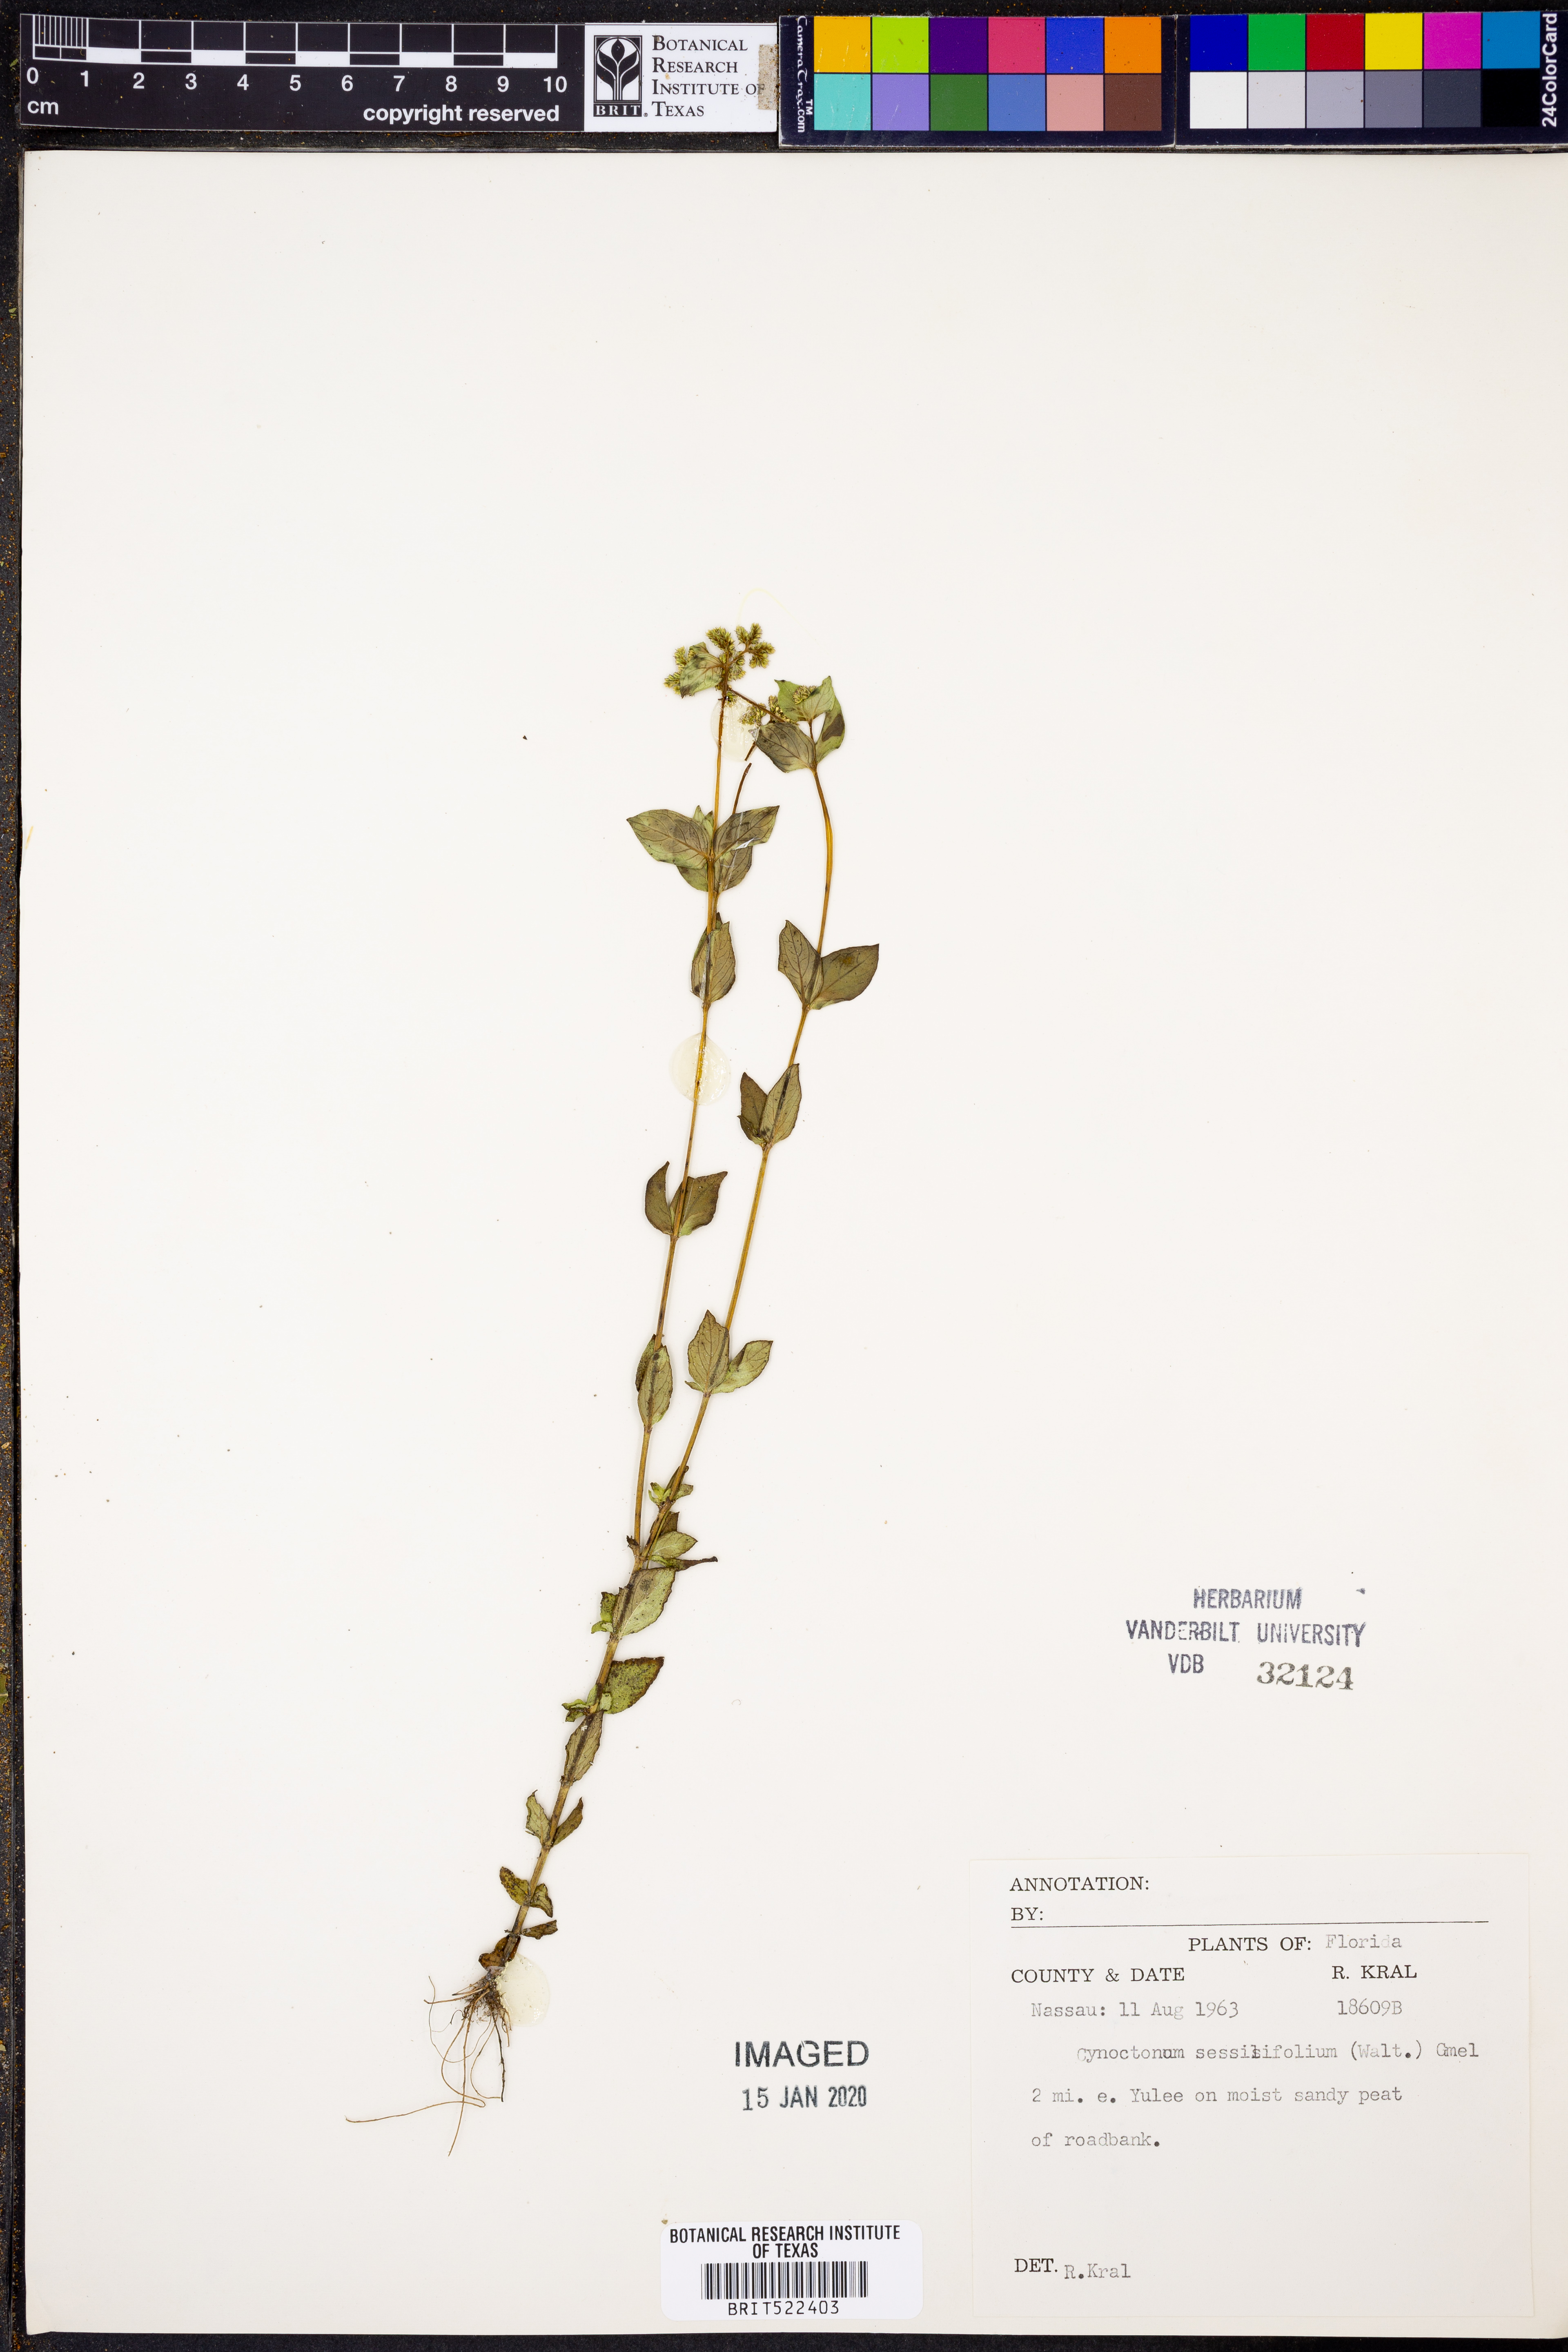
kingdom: Plantae
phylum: Tracheophyta
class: Magnoliopsida
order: Gentianales
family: Loganiaceae
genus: Mitreola
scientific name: Mitreola sessilifolia
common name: Swamp hornpod
